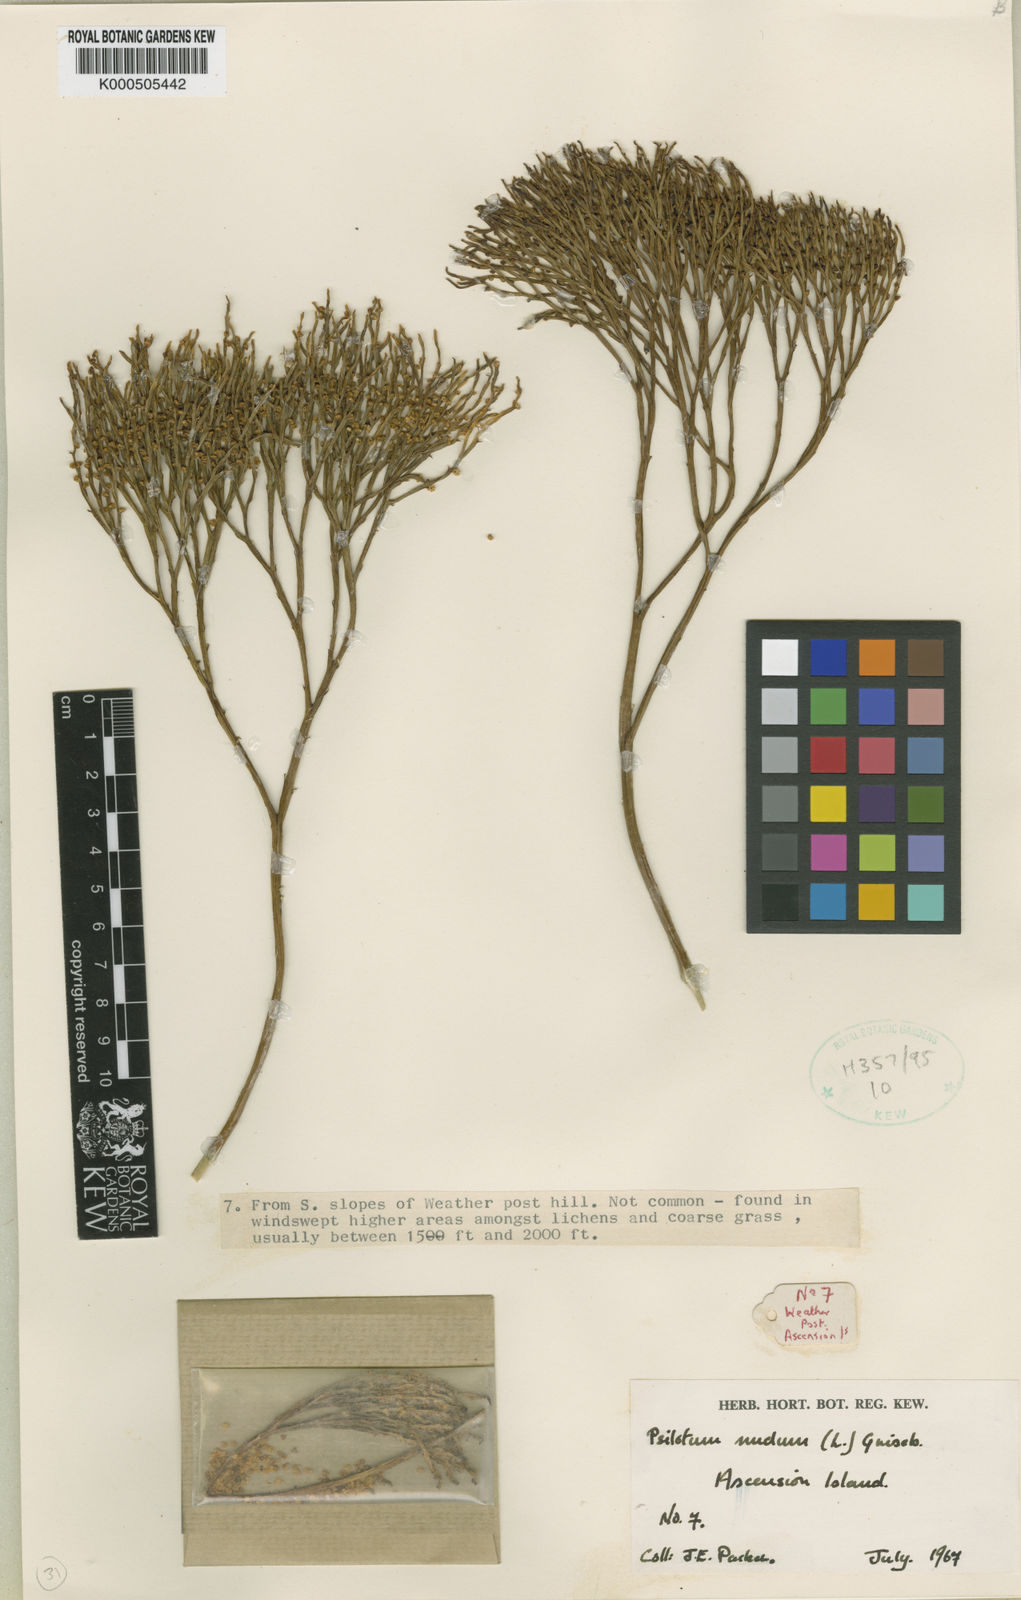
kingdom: Plantae
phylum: Tracheophyta
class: Polypodiopsida
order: Psilotales
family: Psilotaceae
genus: Psilotum
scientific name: Psilotum
